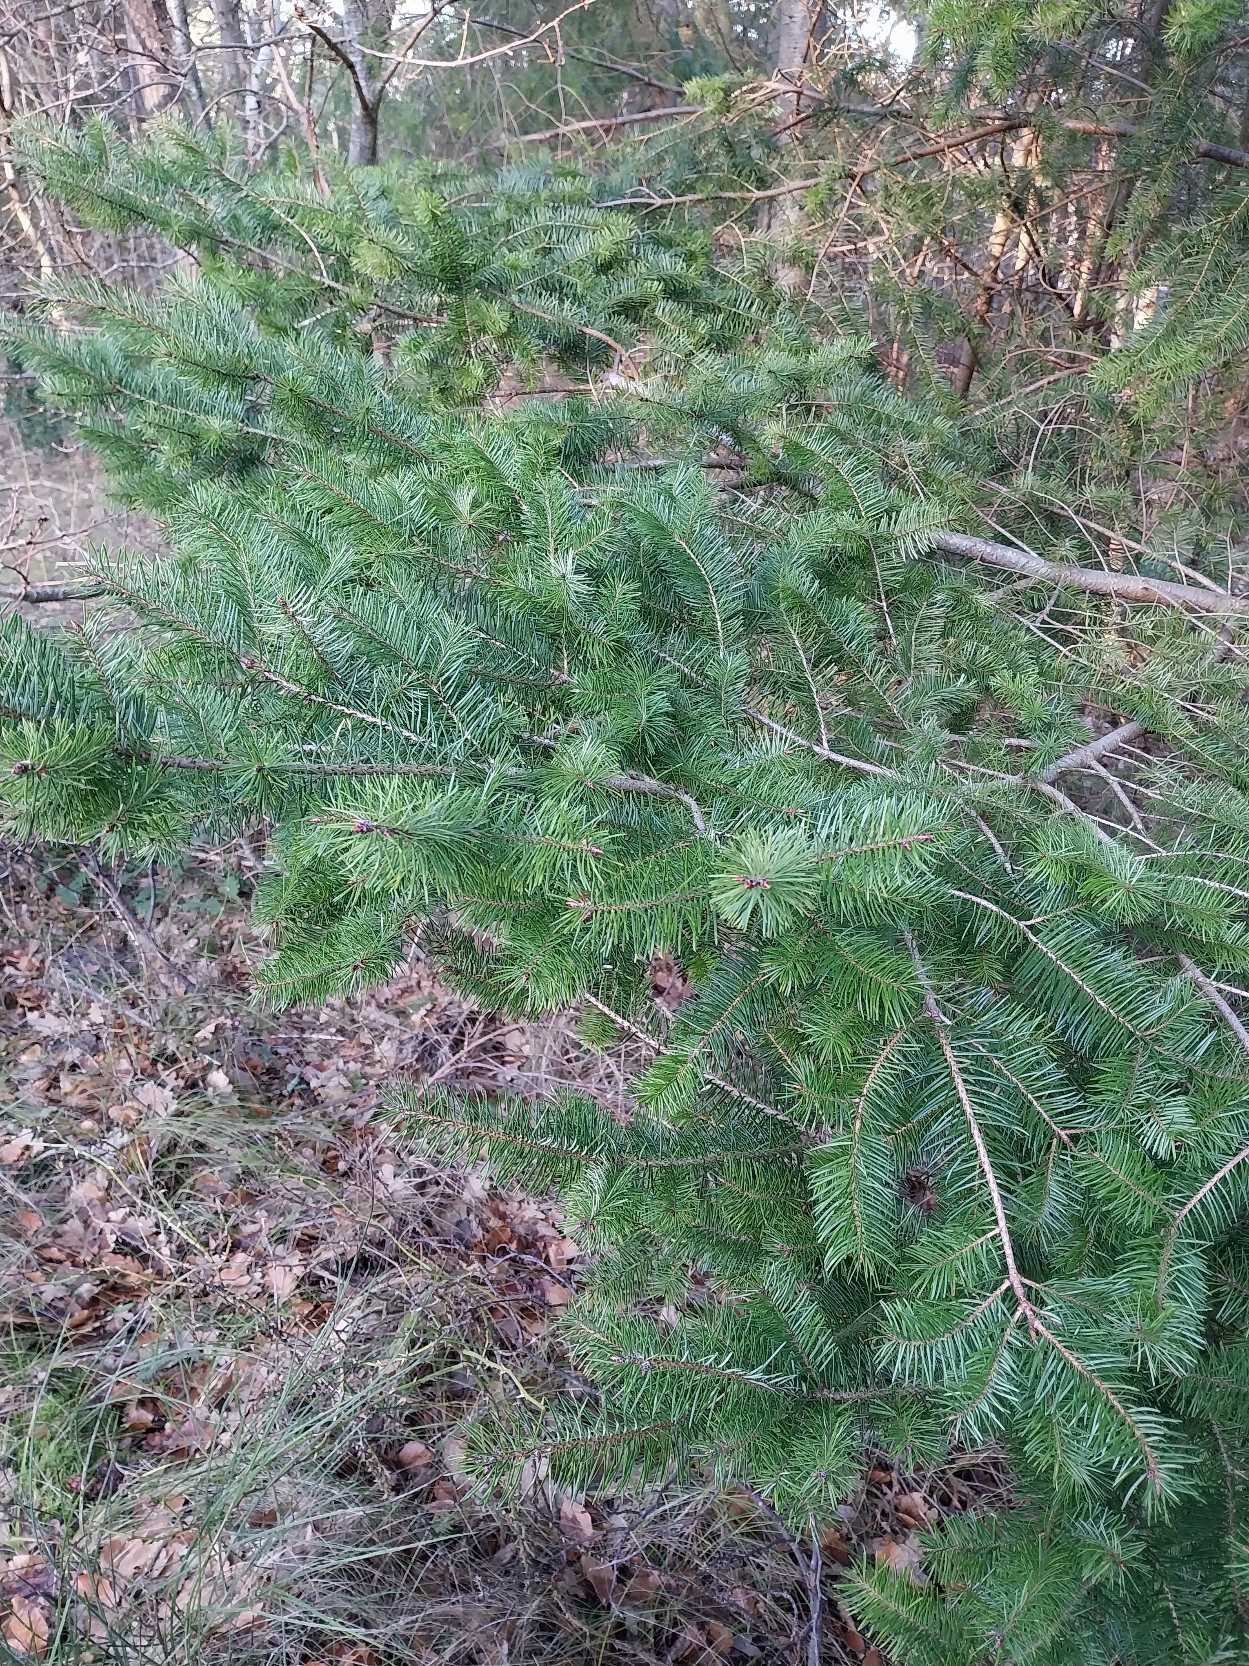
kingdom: Plantae
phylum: Tracheophyta
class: Pinopsida
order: Pinales
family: Pinaceae
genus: Pseudotsuga
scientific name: Pseudotsuga menziesii
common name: Douglasgran
